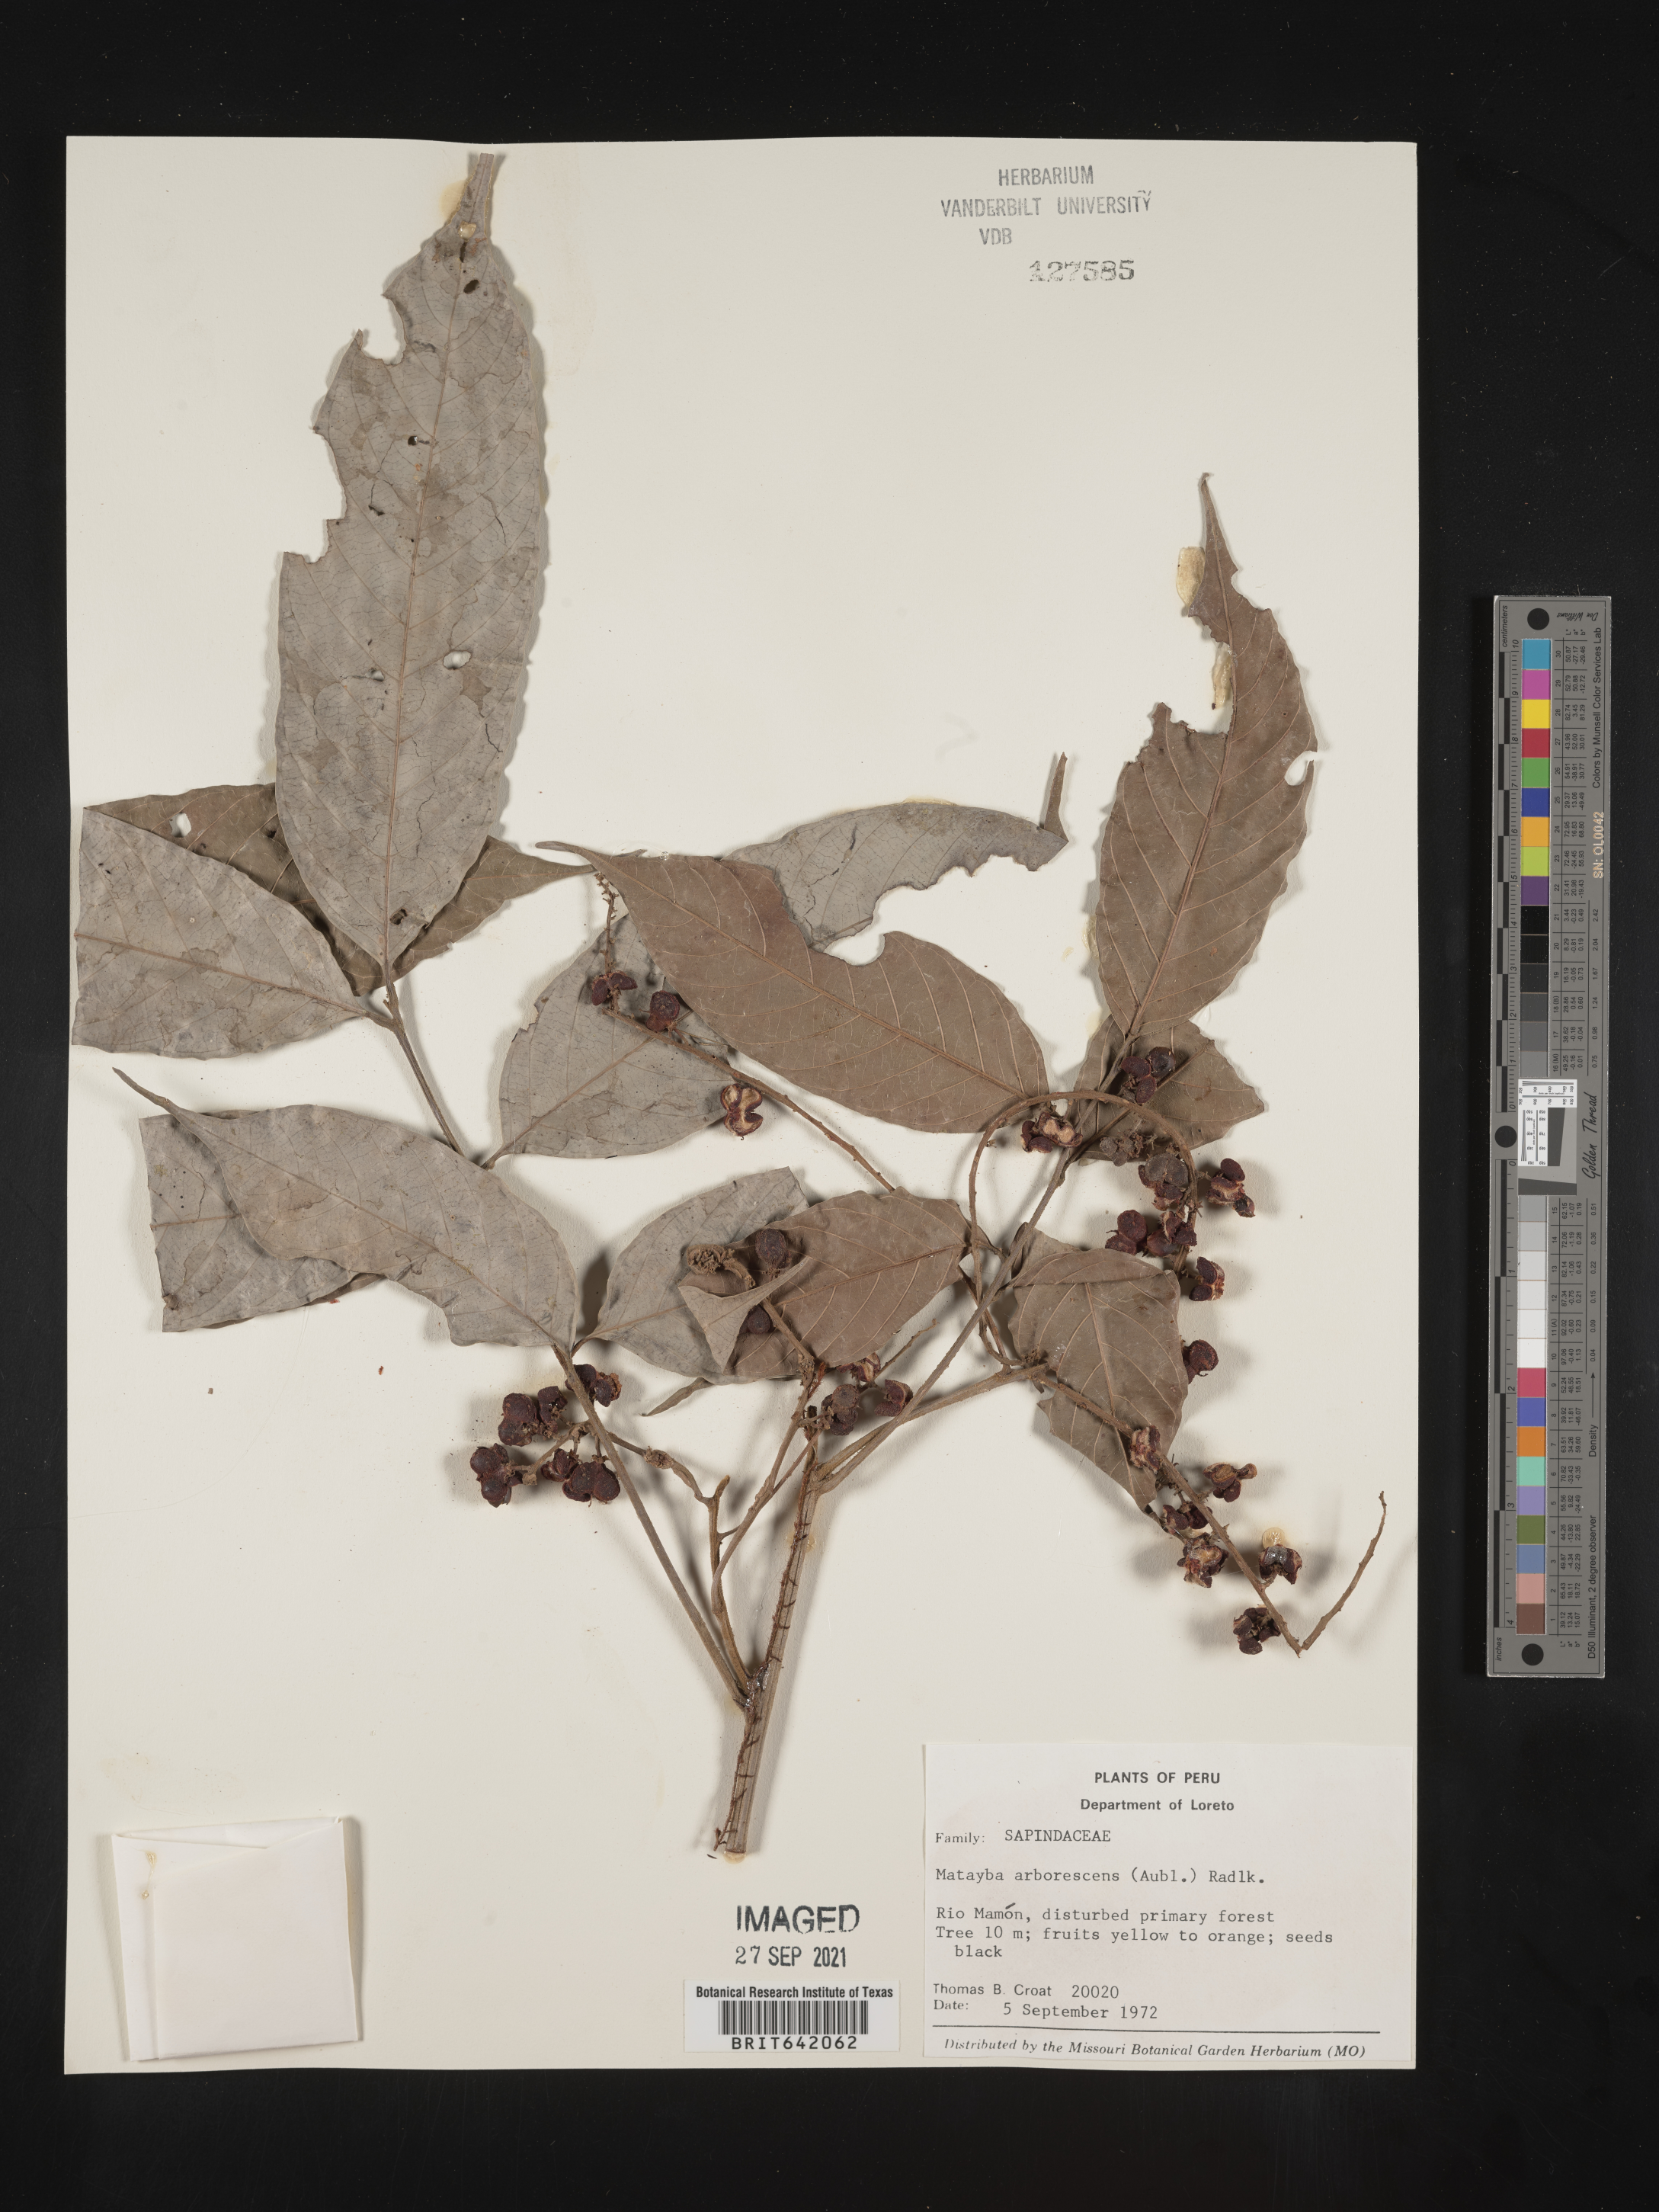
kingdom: Plantae
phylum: Tracheophyta
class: Magnoliopsida
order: Sapindales
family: Sapindaceae
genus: Matayba
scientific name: Matayba
